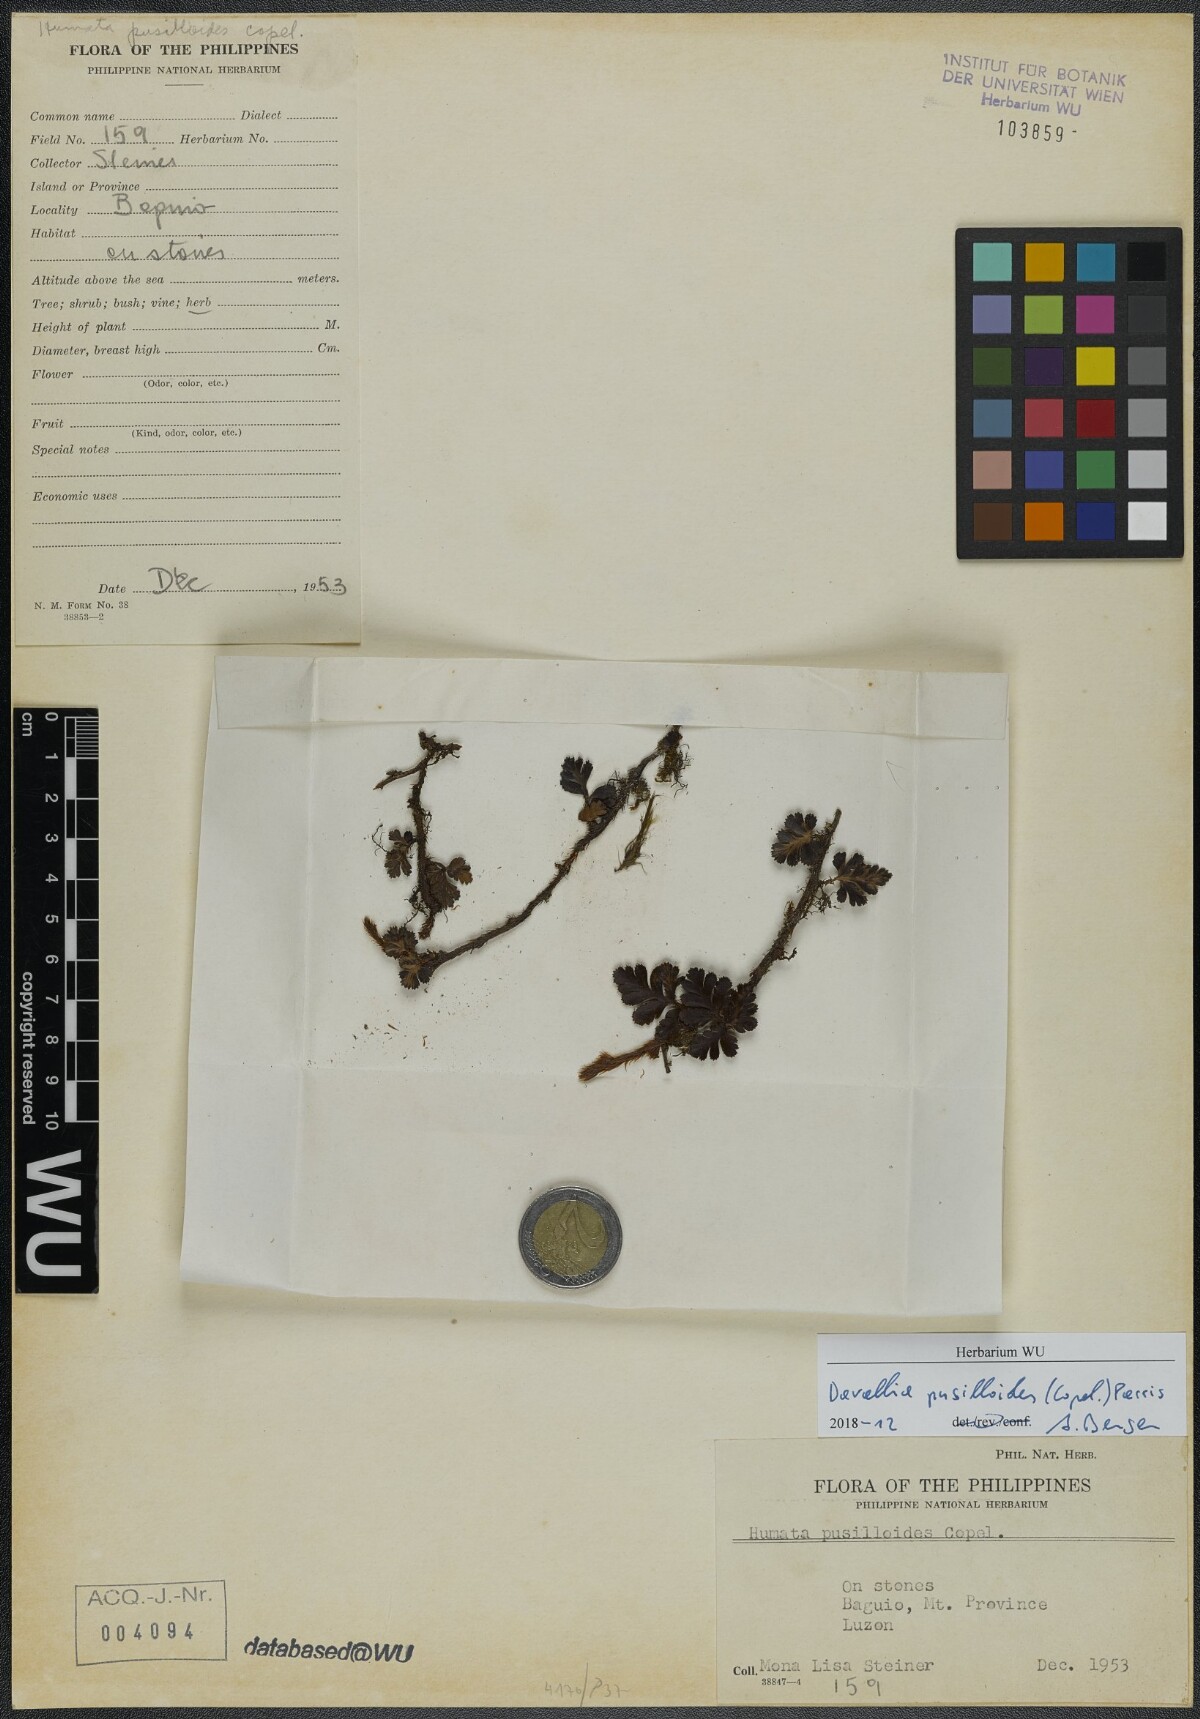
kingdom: Plantae
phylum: Tracheophyta
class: Polypodiopsida
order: Polypodiales
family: Davalliaceae
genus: Davallia
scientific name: Davallia pusilloides
